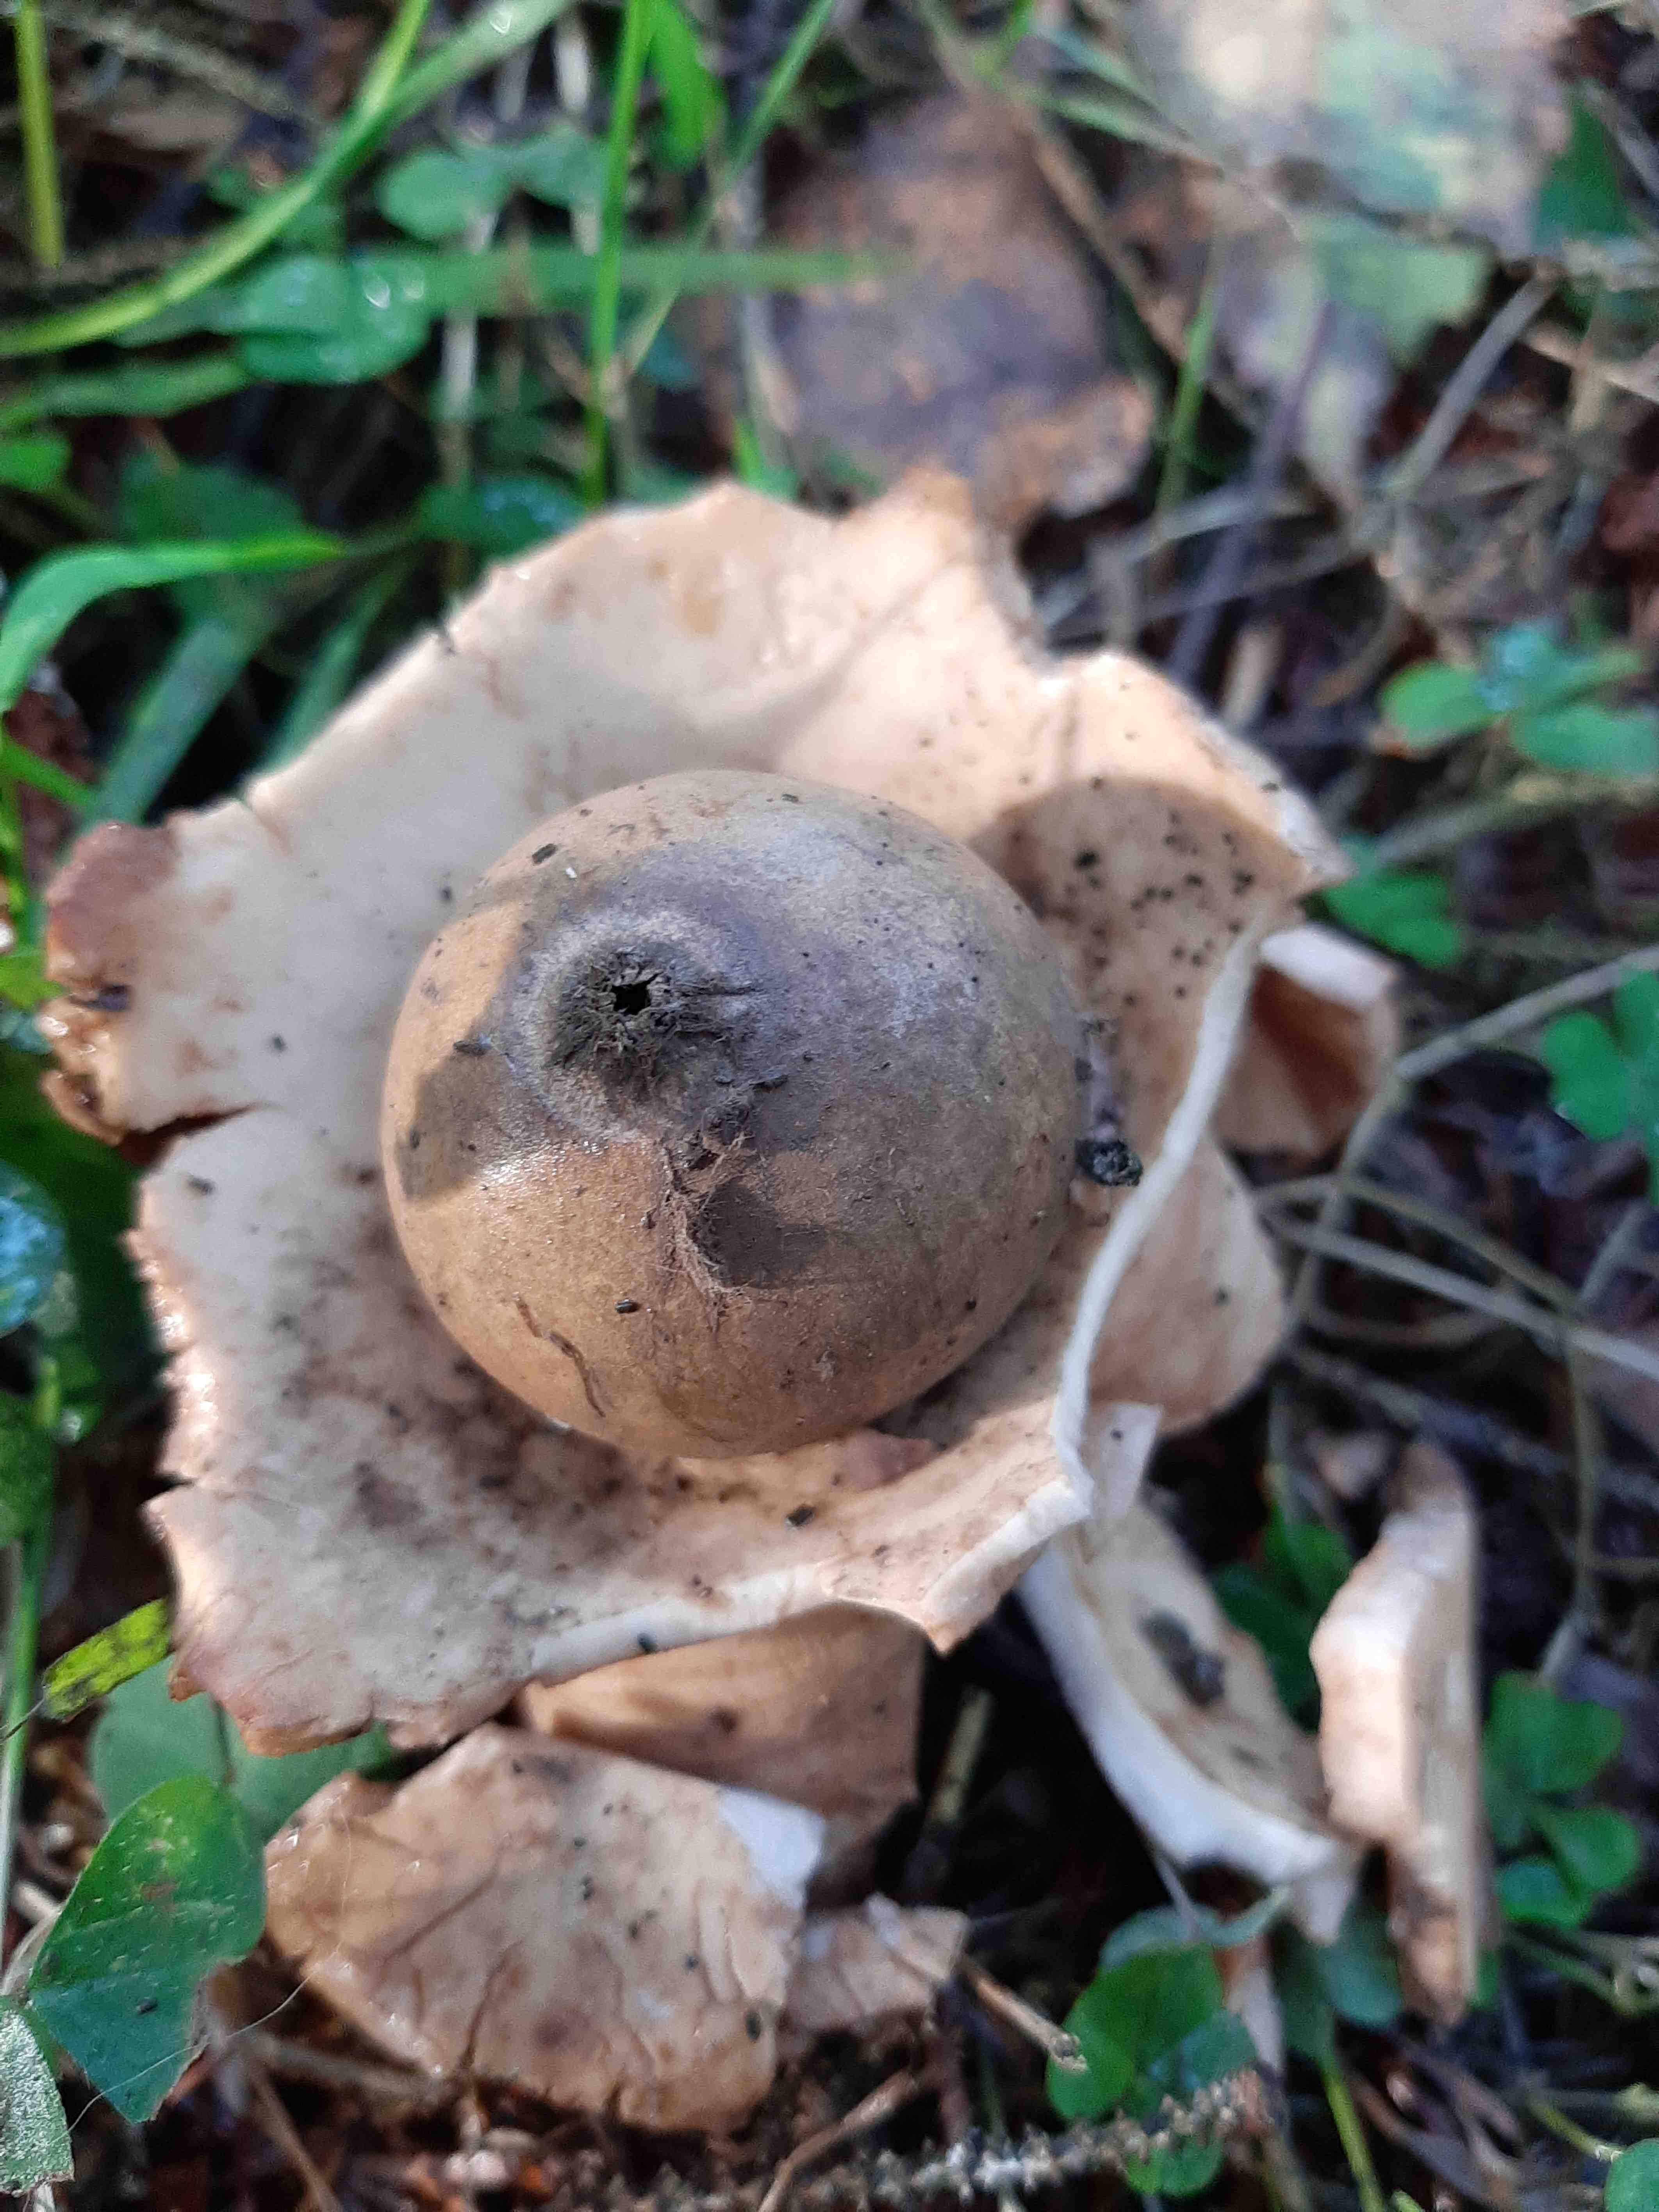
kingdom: Fungi
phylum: Basidiomycota
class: Agaricomycetes
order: Geastrales
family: Geastraceae
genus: Geastrum
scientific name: Geastrum michelianum
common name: kødet stjernebold
